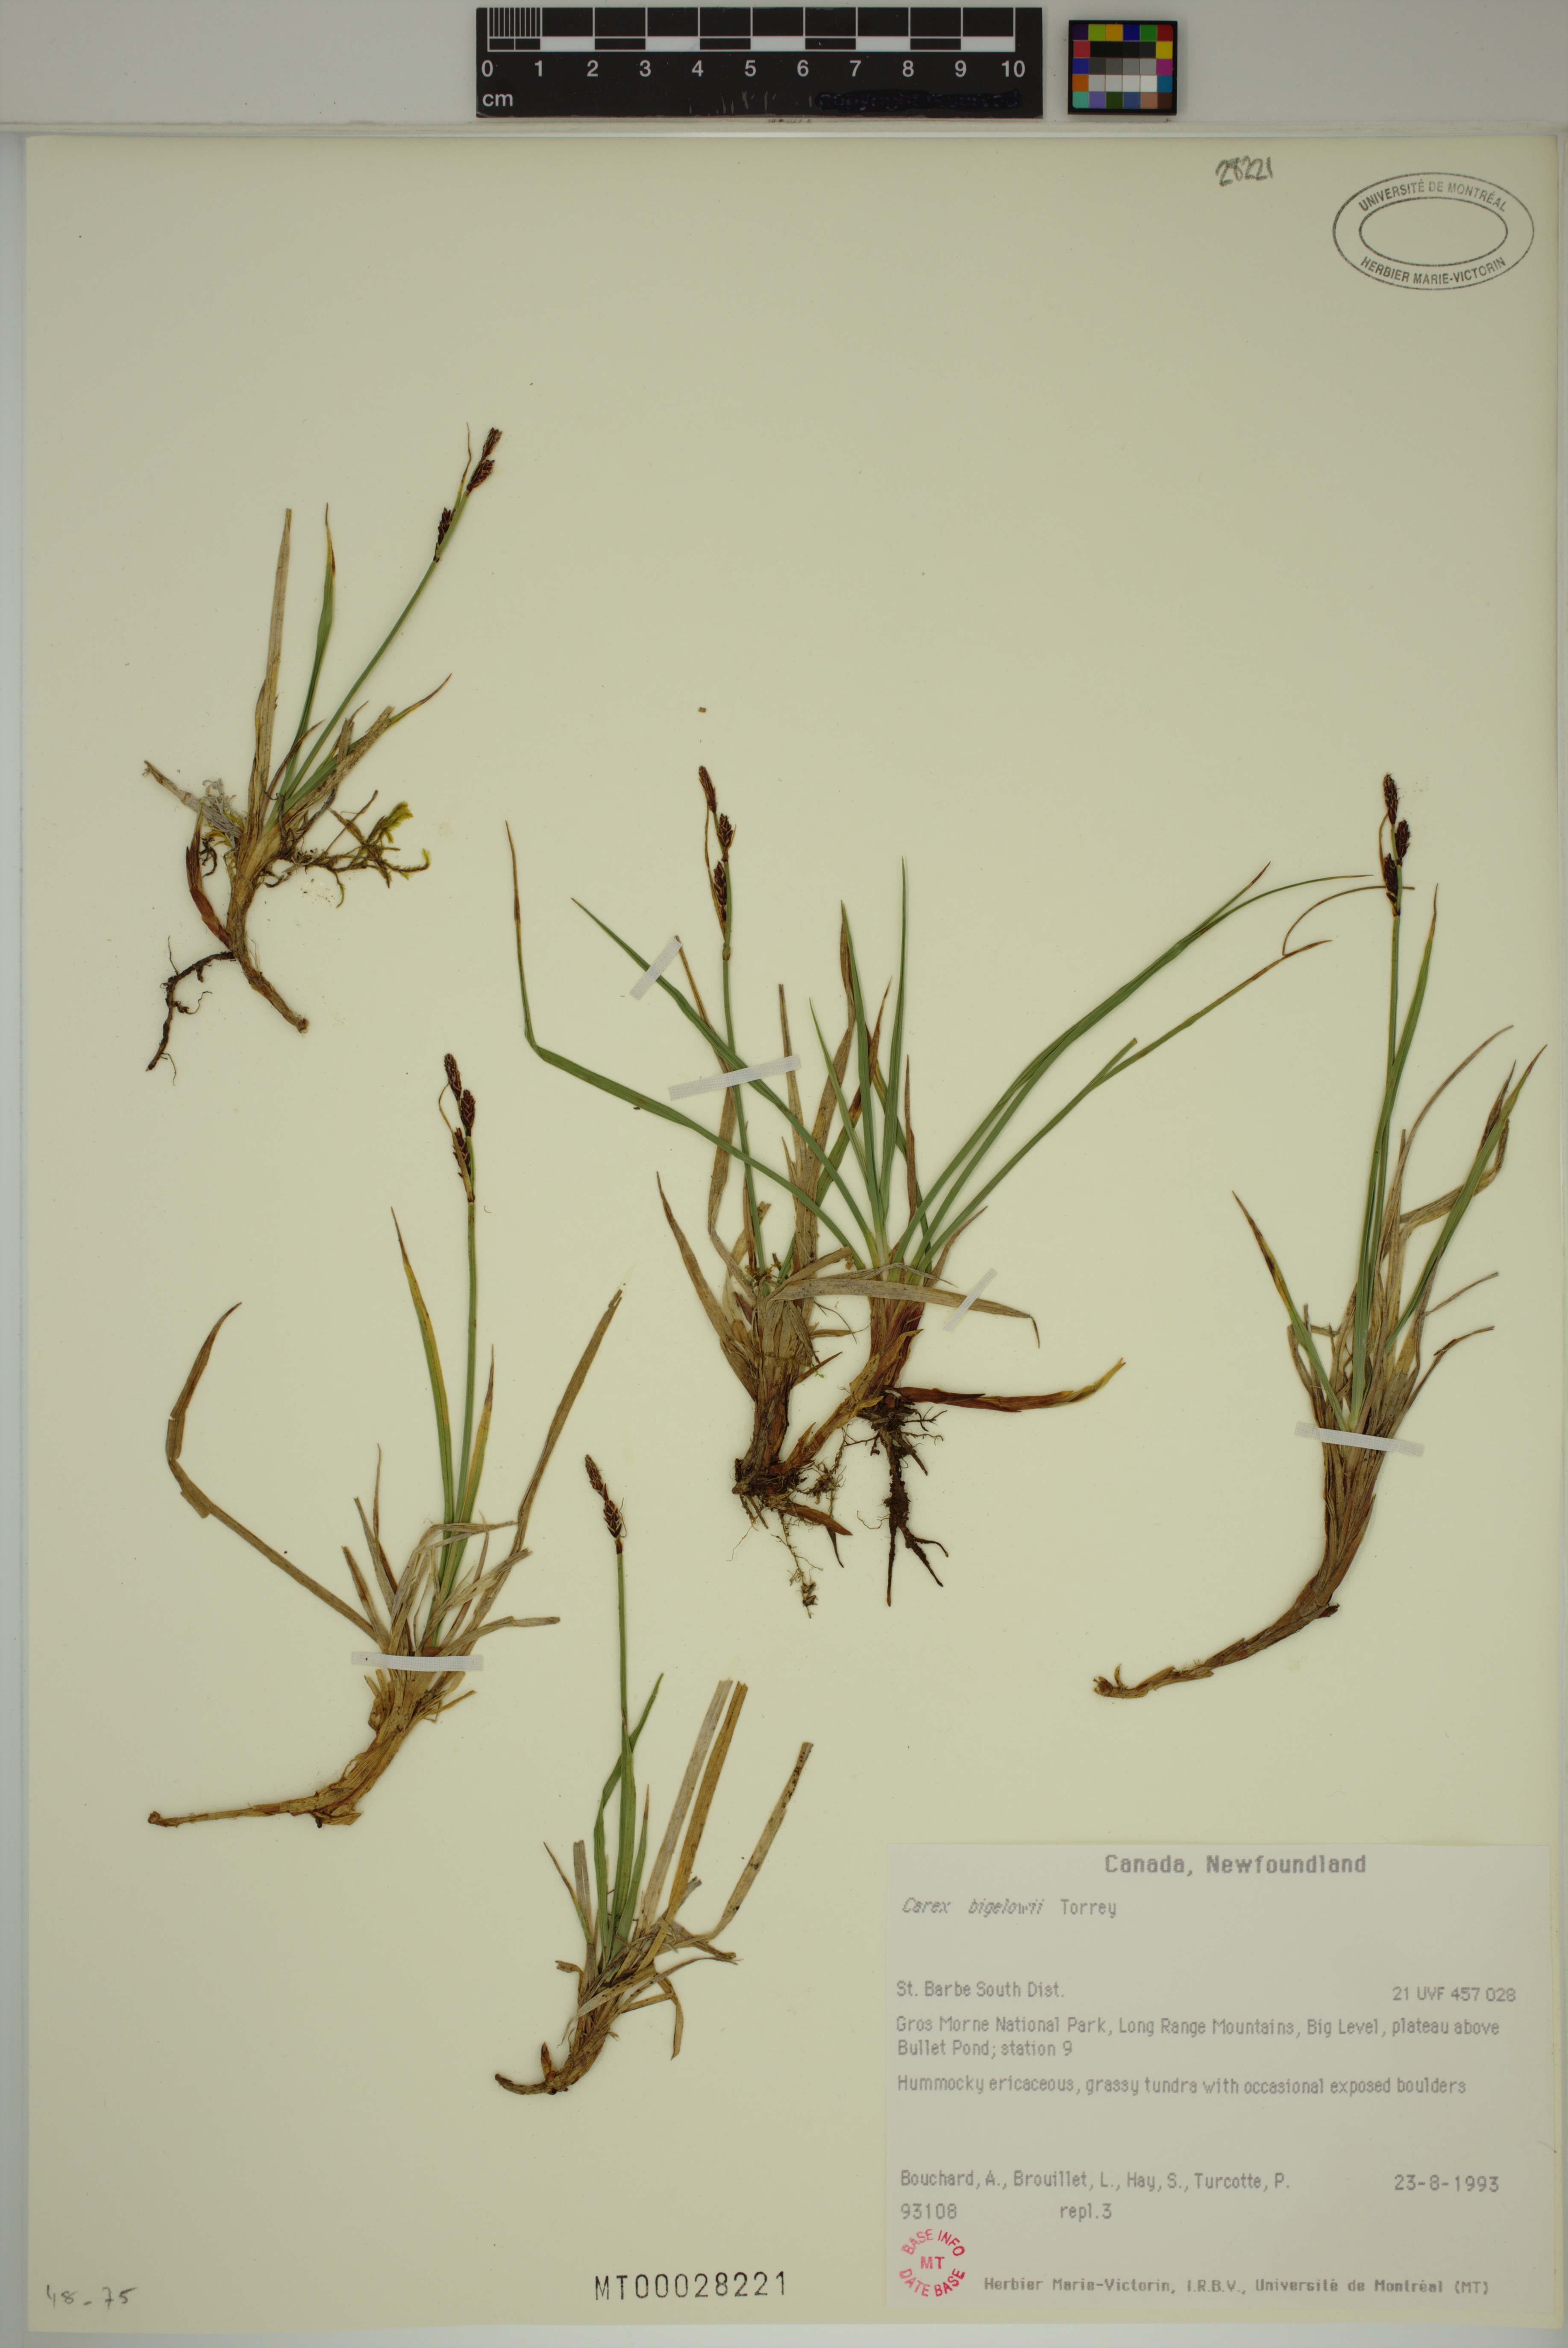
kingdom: Plantae
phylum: Tracheophyta
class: Liliopsida
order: Poales
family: Cyperaceae
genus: Carex
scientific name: Carex bigelowii
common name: Stiff sedge
